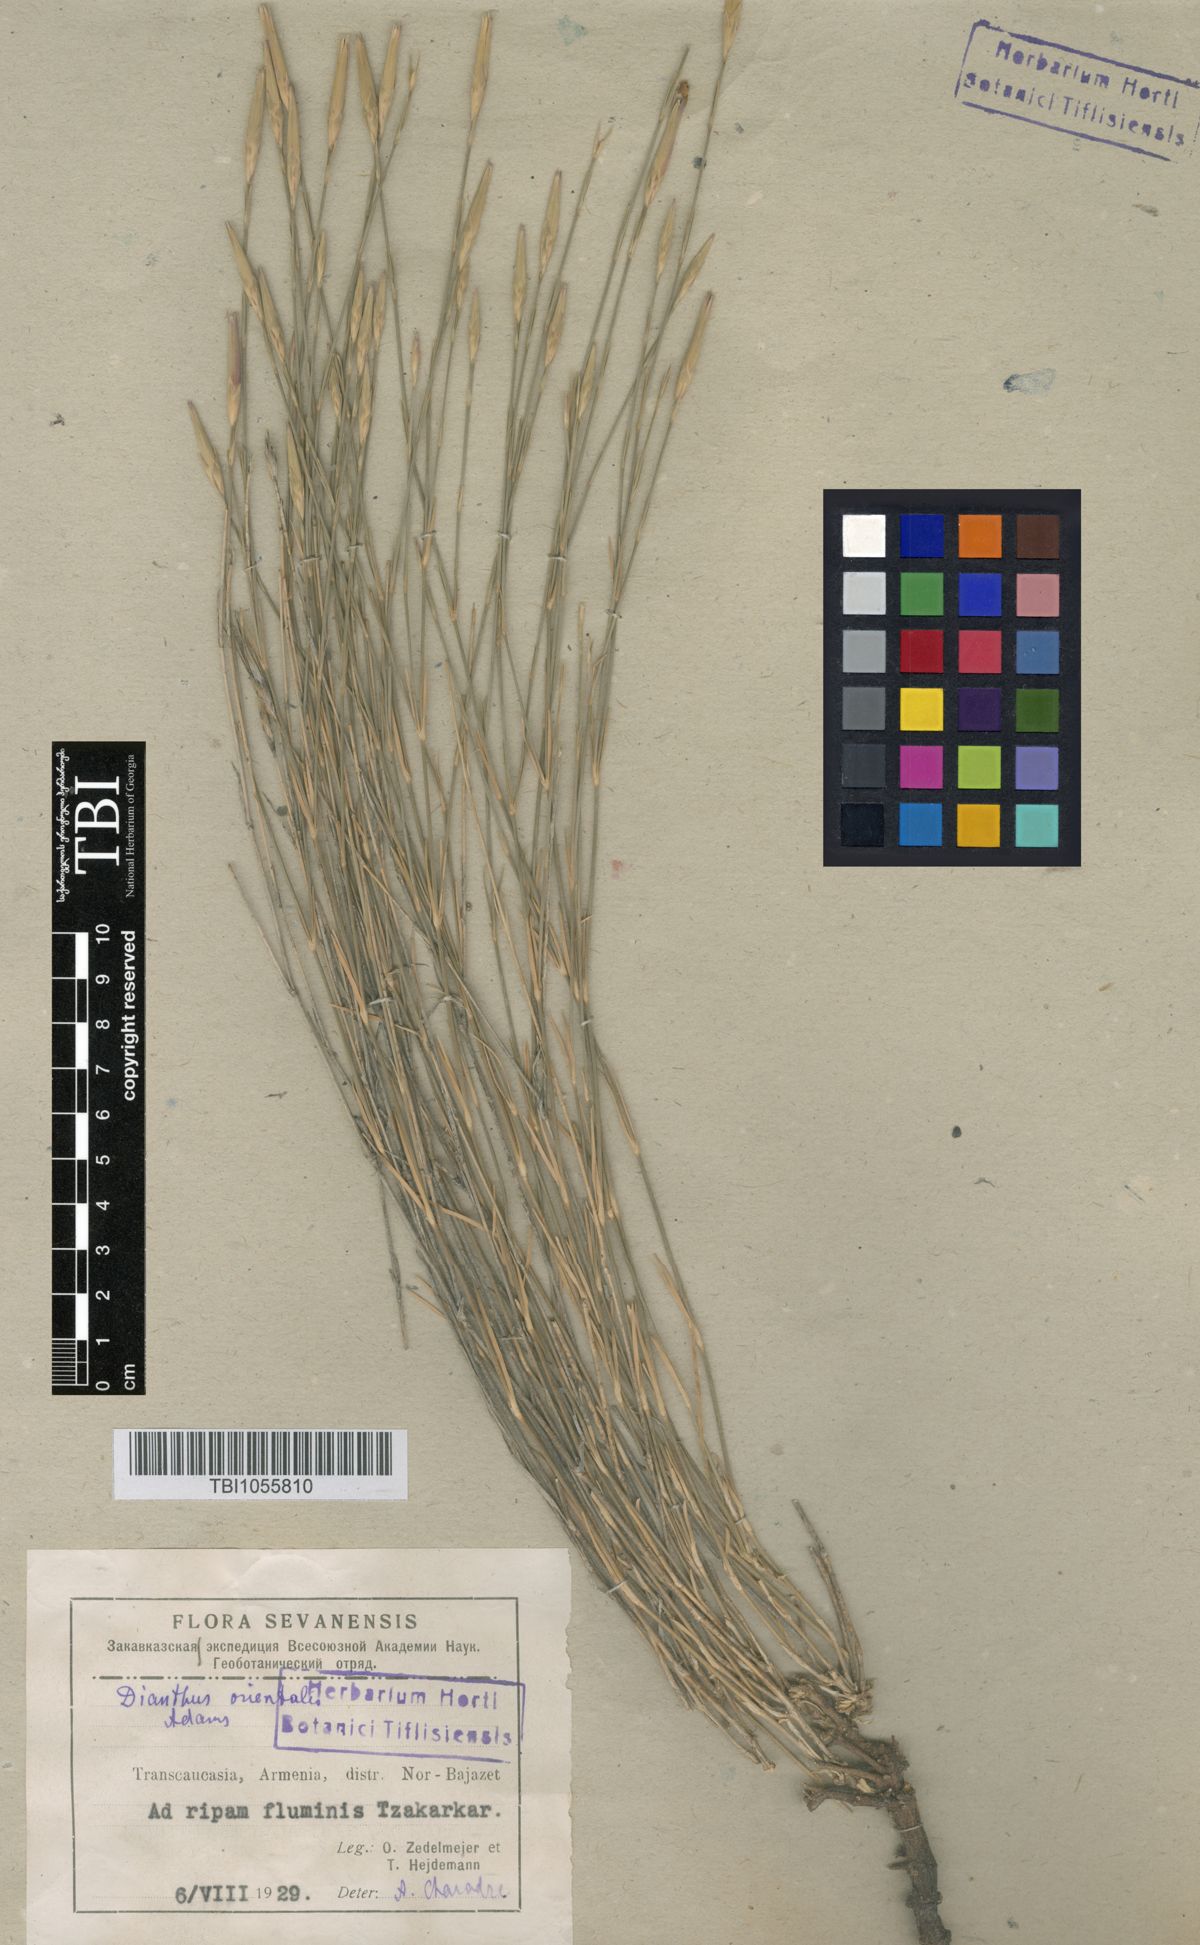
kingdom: Plantae
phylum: Tracheophyta
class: Magnoliopsida
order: Caryophyllales
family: Caryophyllaceae
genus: Dianthus
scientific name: Dianthus orientalis
